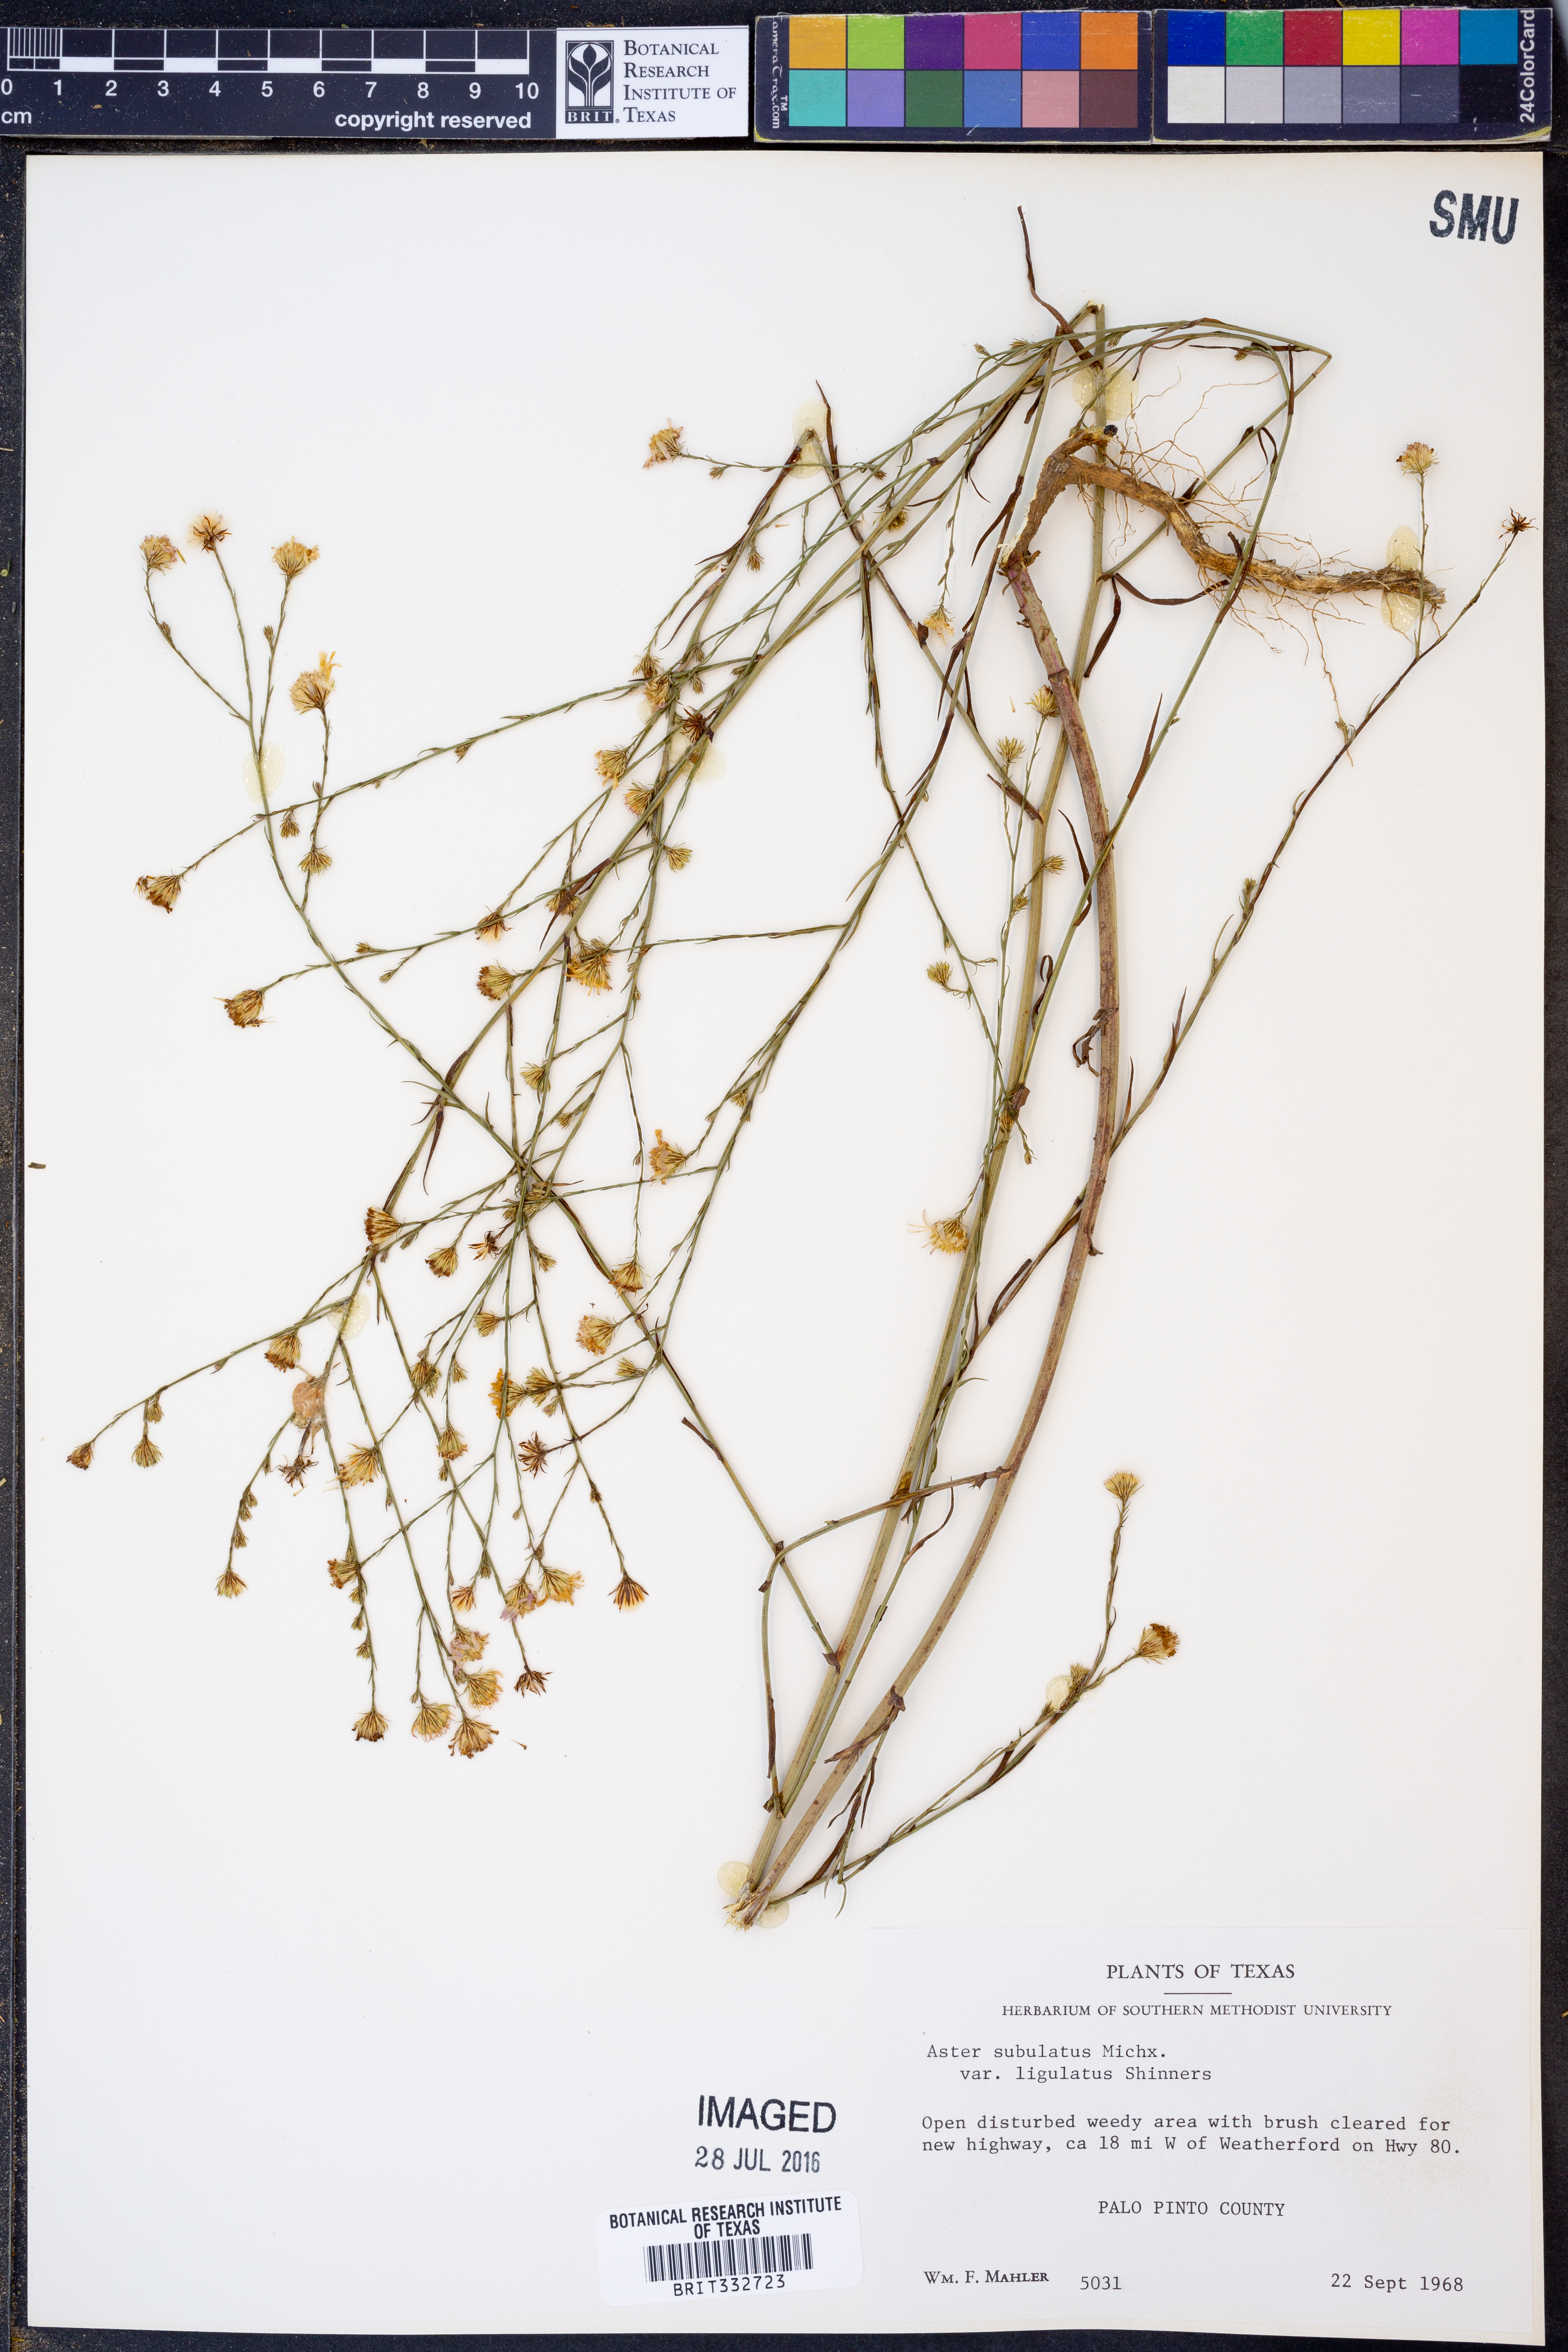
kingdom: Plantae
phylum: Tracheophyta
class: Magnoliopsida
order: Asterales
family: Asteraceae
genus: Symphyotrichum
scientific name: Symphyotrichum subulatum
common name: Annual saltmarsh aster
